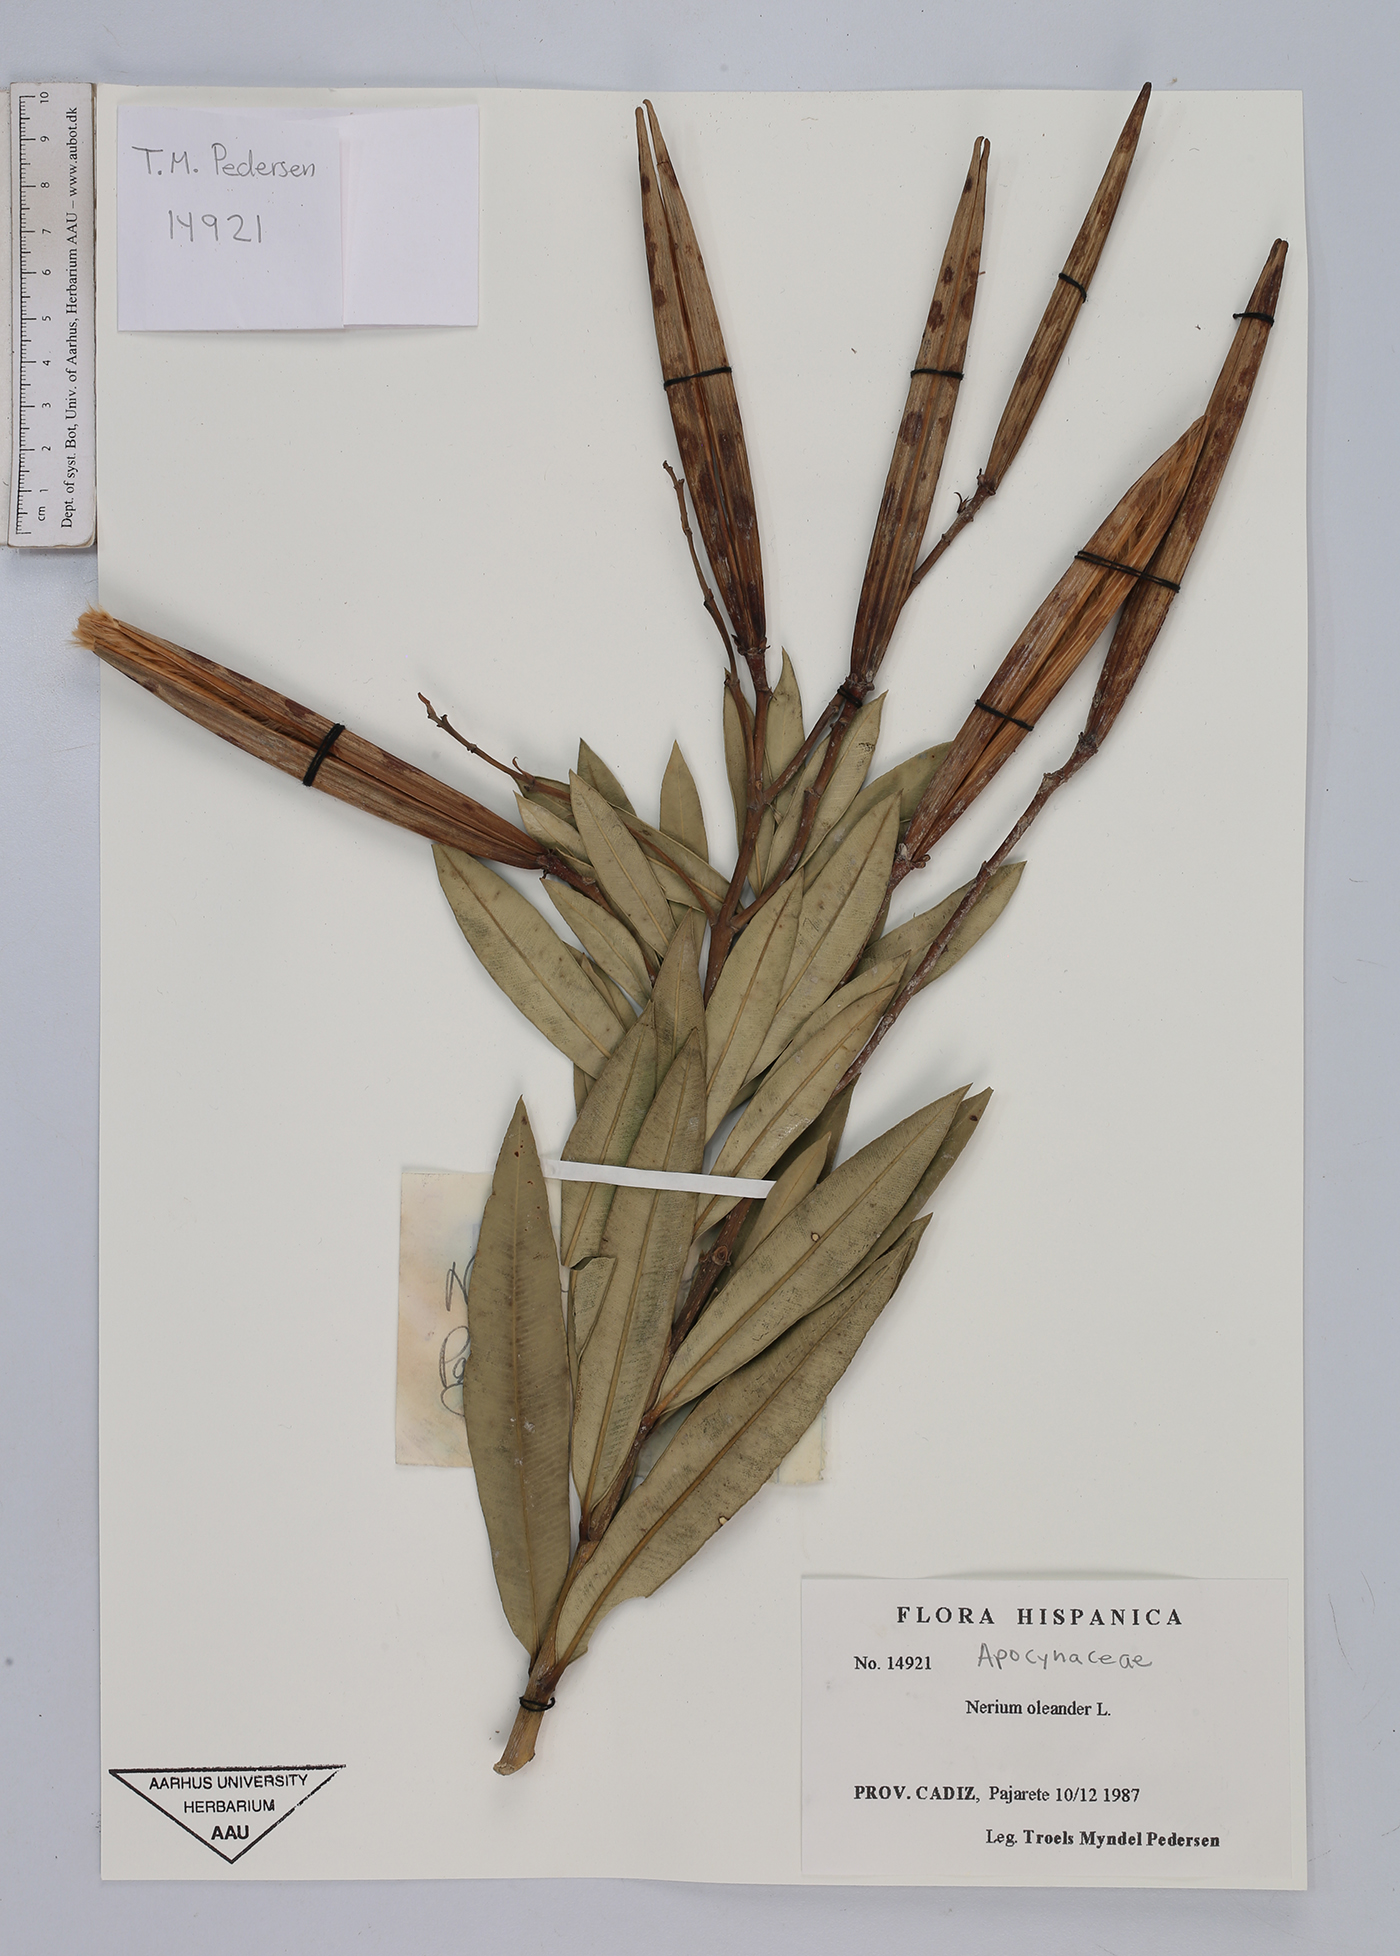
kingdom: Plantae
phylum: Tracheophyta
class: Magnoliopsida
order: Gentianales
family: Apocynaceae
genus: Nerium
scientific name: Nerium oleander
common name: Oleander
